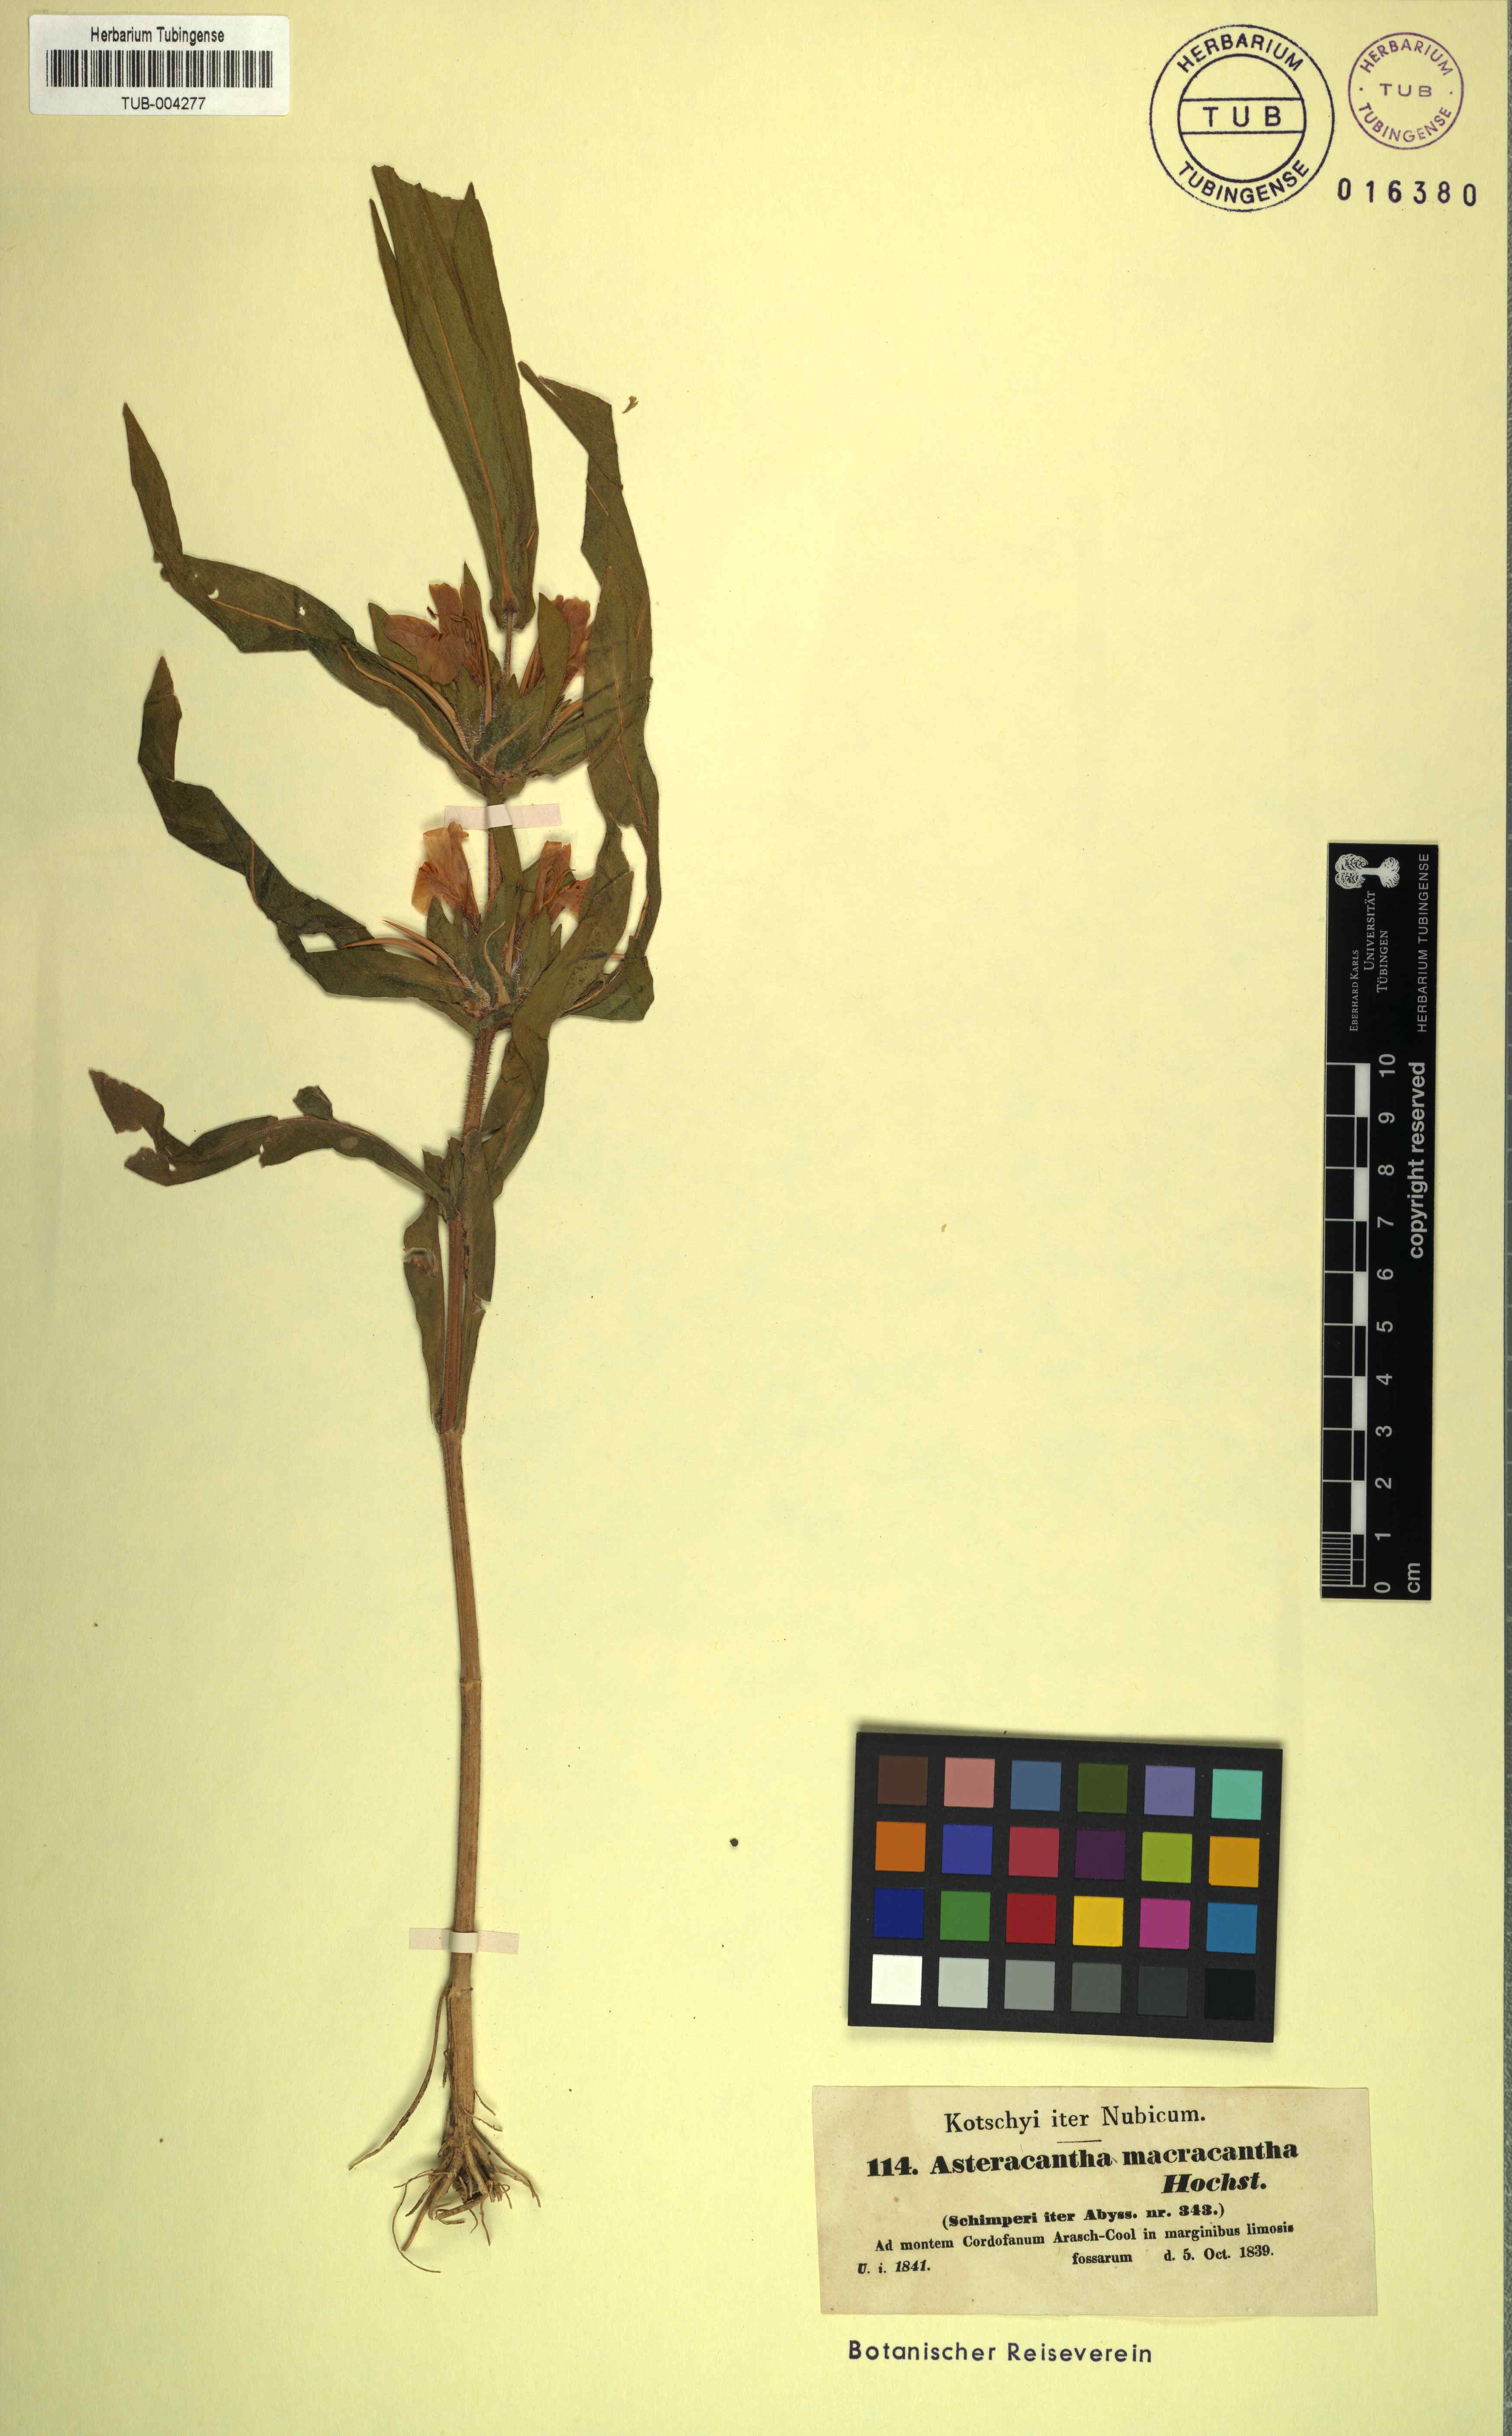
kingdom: Plantae
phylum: Tracheophyta
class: Magnoliopsida
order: Lamiales
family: Acanthaceae
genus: Hygrophila
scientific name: Hygrophila auriculata
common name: Hygrophila
